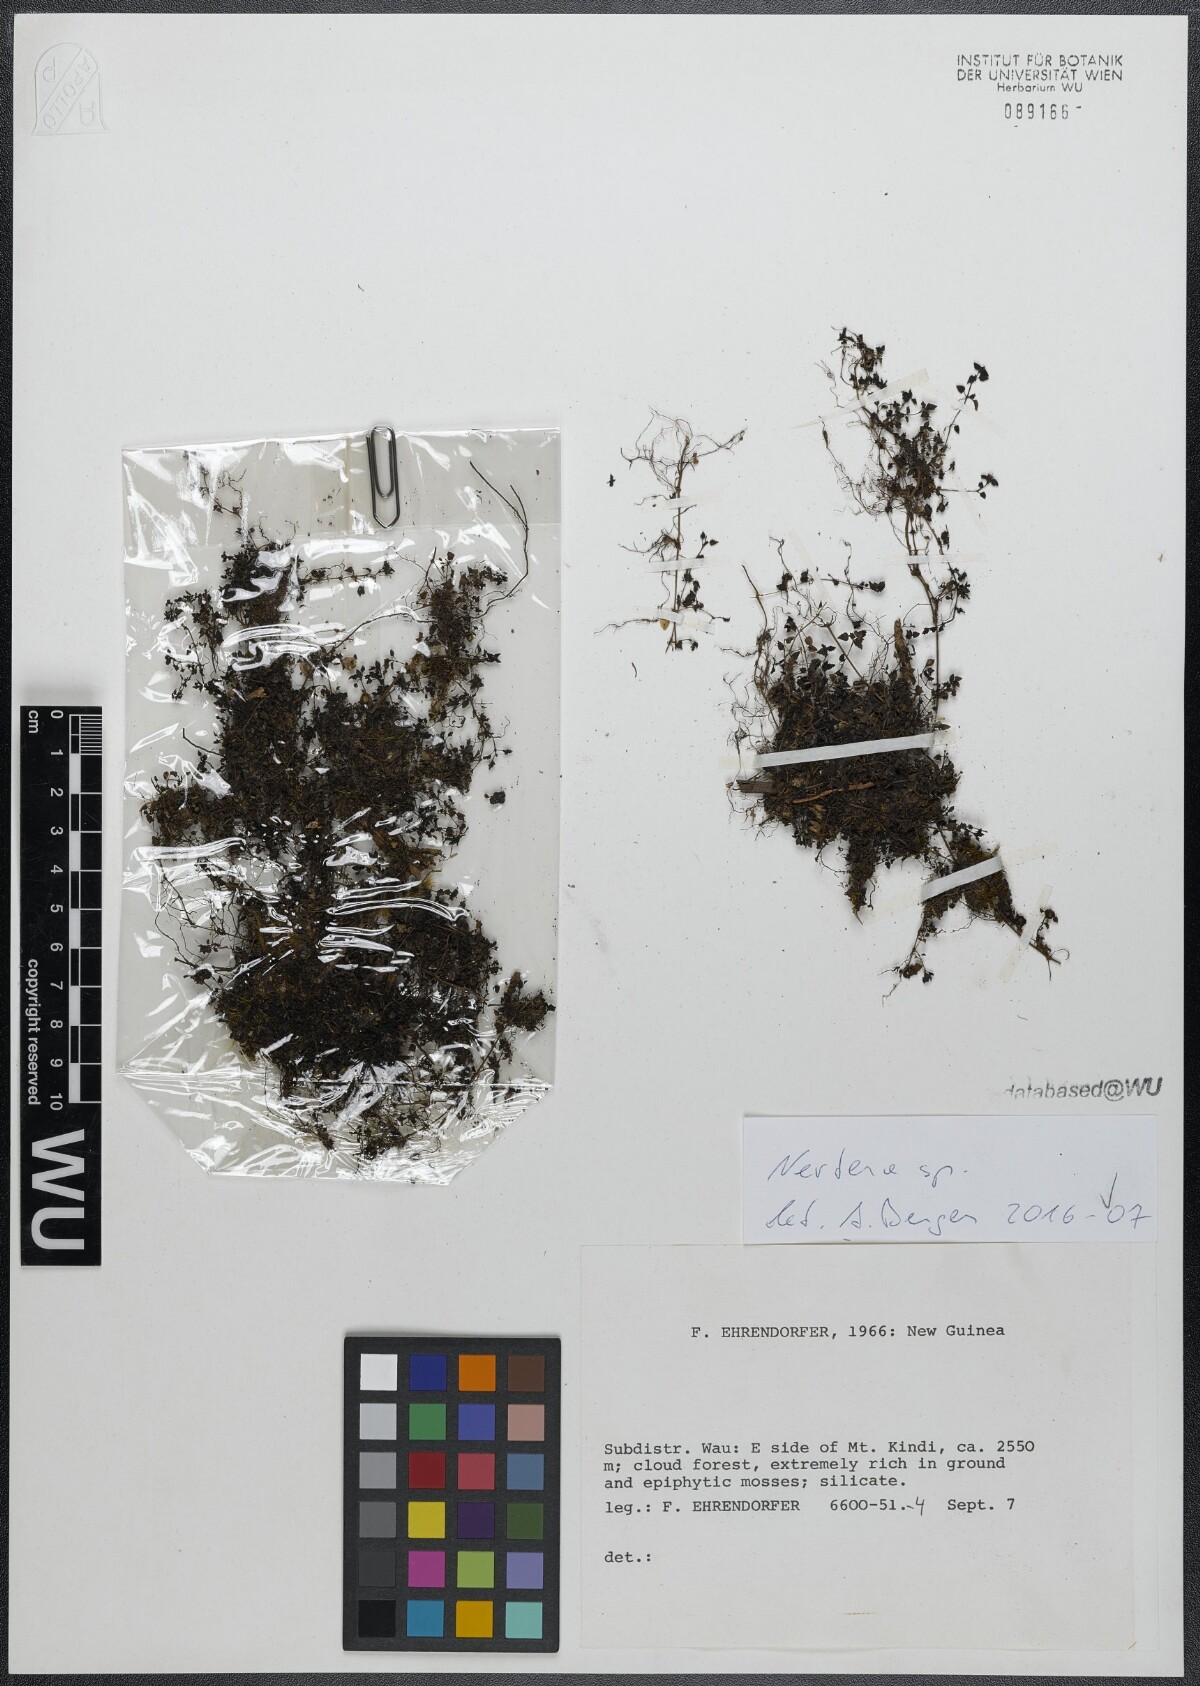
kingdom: Plantae
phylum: Tracheophyta
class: Magnoliopsida
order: Gentianales
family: Rubiaceae
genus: Nertera
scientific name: Nertera
